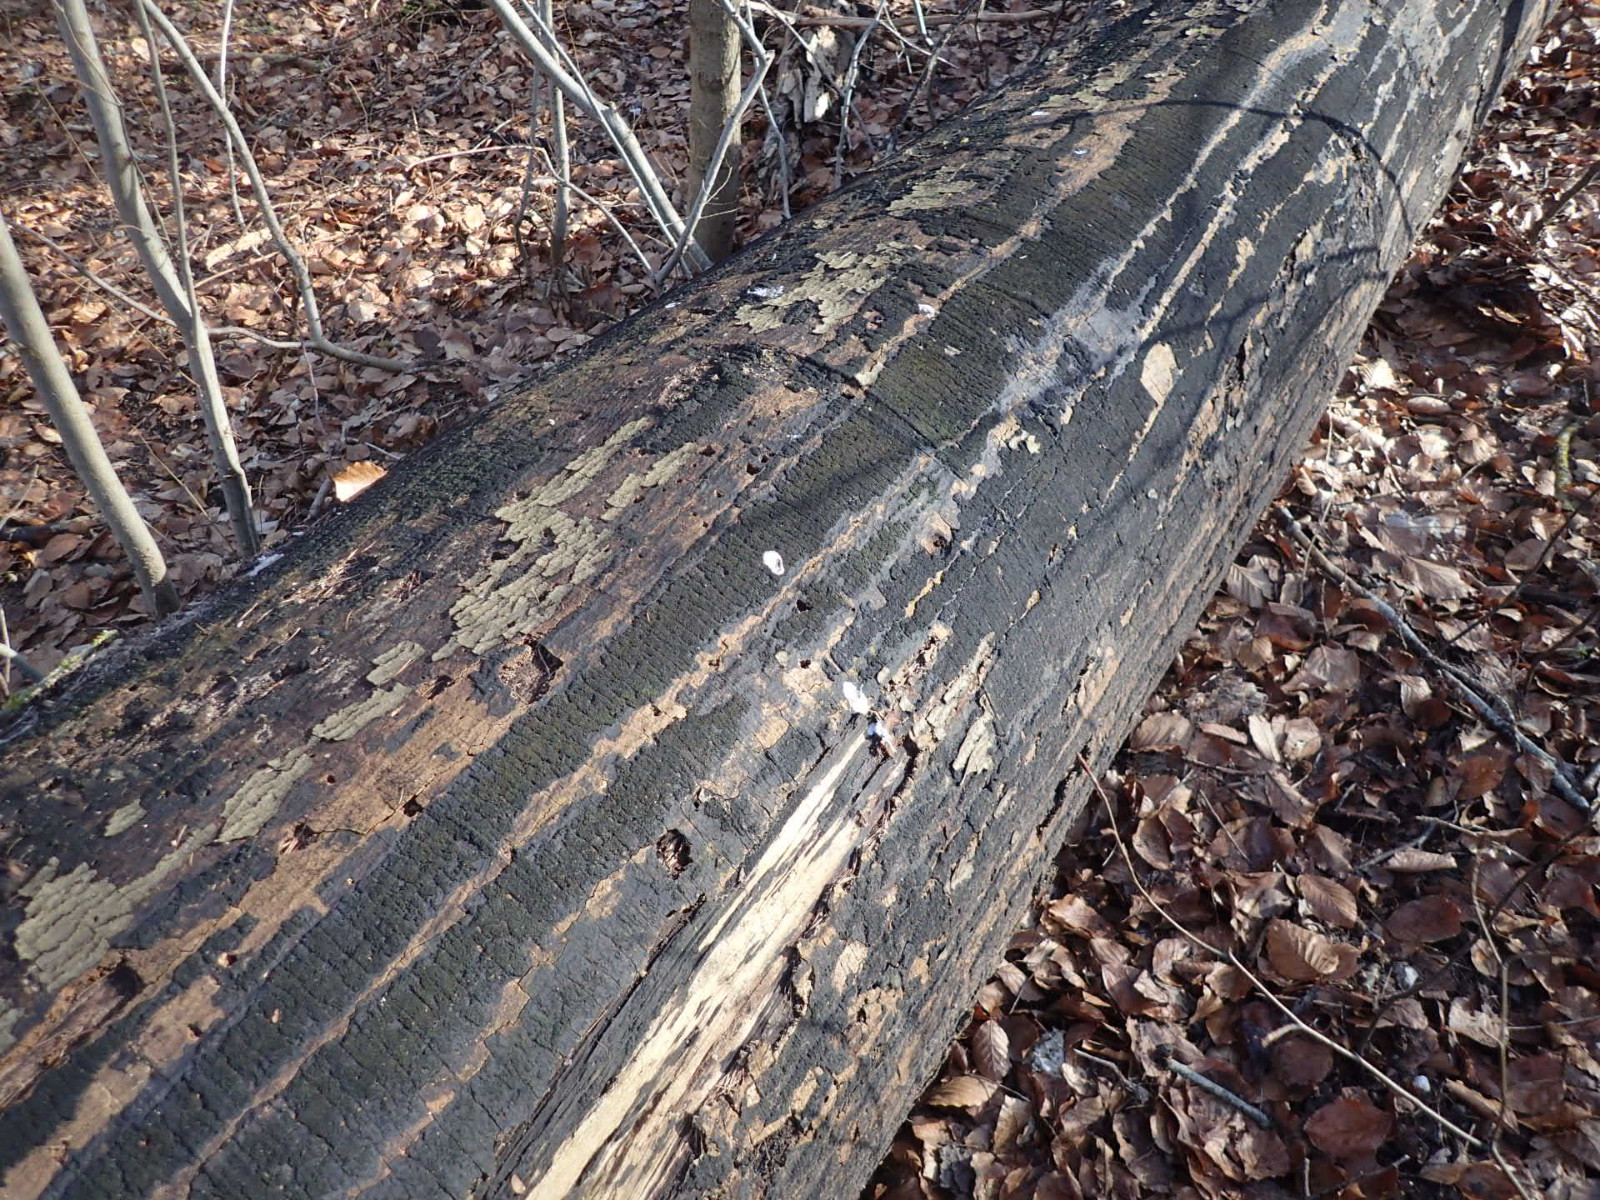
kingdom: Fungi
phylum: Ascomycota
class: Sordariomycetes
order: Xylariales
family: Diatrypaceae
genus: Eutypa
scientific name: Eutypa spinosa
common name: grov kulskorpe
